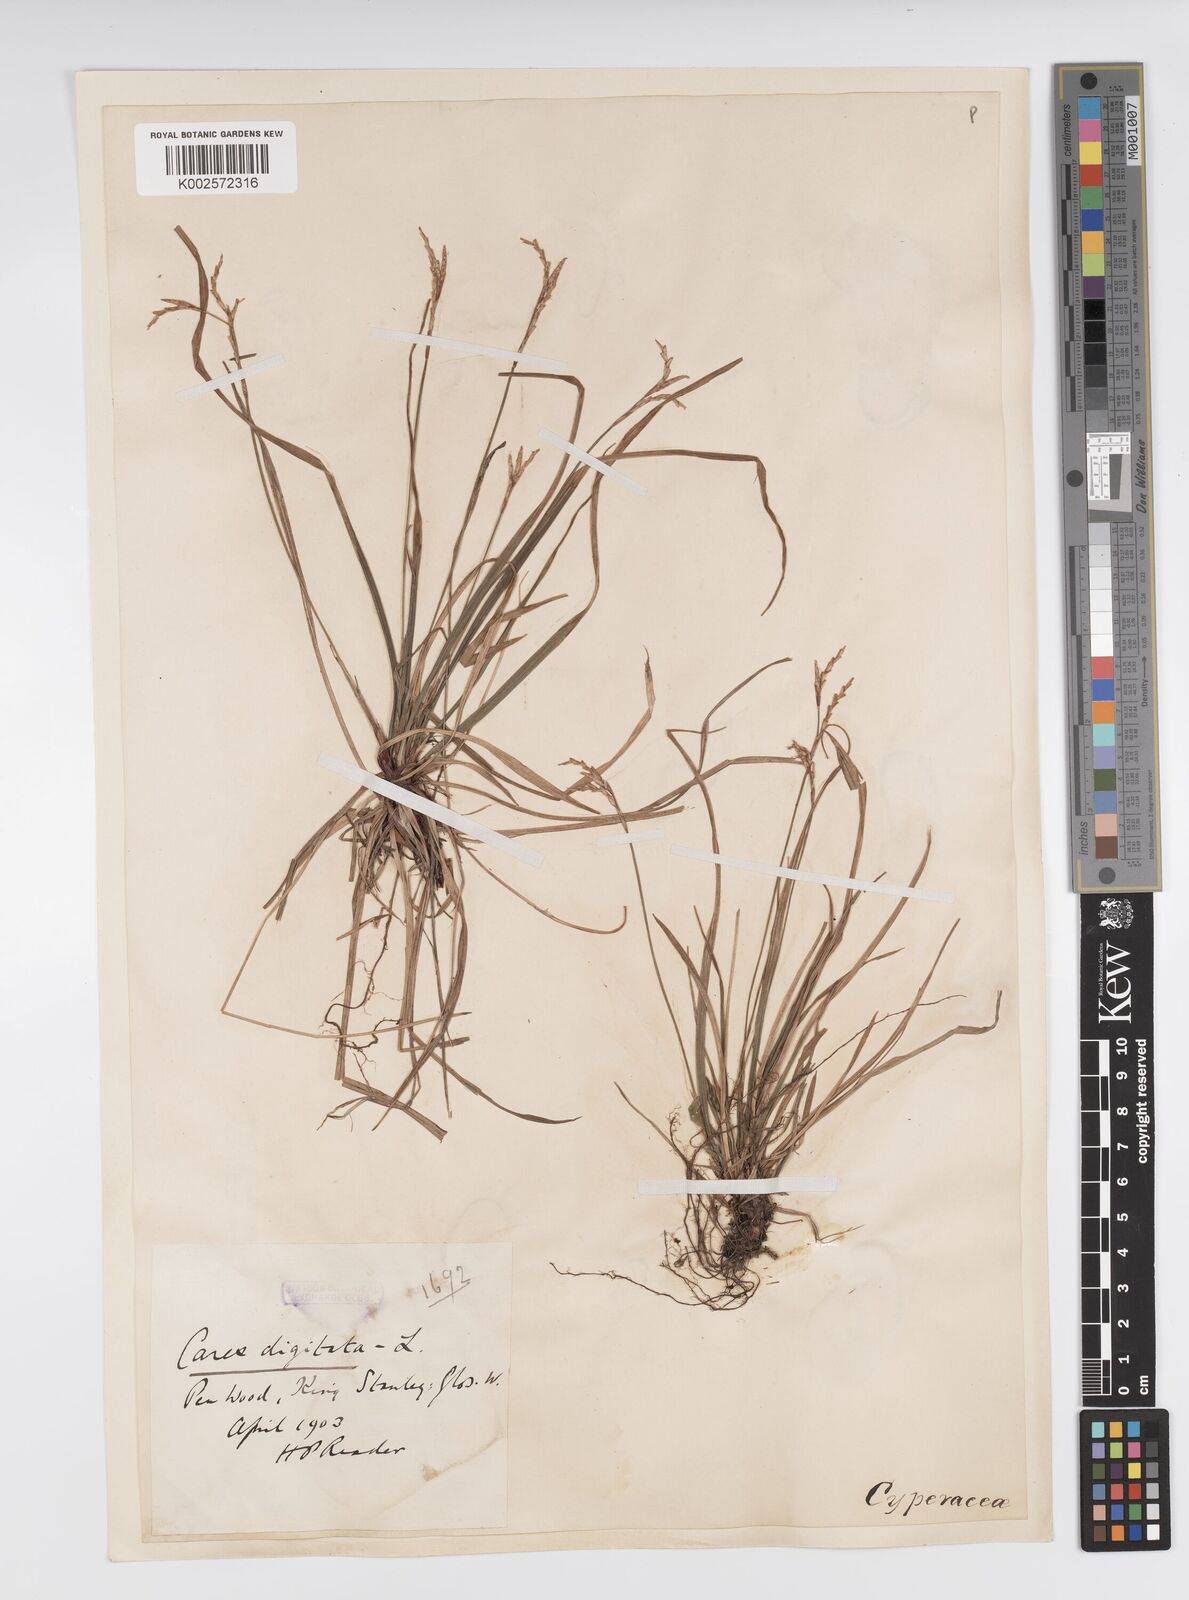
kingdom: Plantae
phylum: Tracheophyta
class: Liliopsida
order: Poales
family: Cyperaceae
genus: Carex
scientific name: Carex digitata
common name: Fingered sedge
